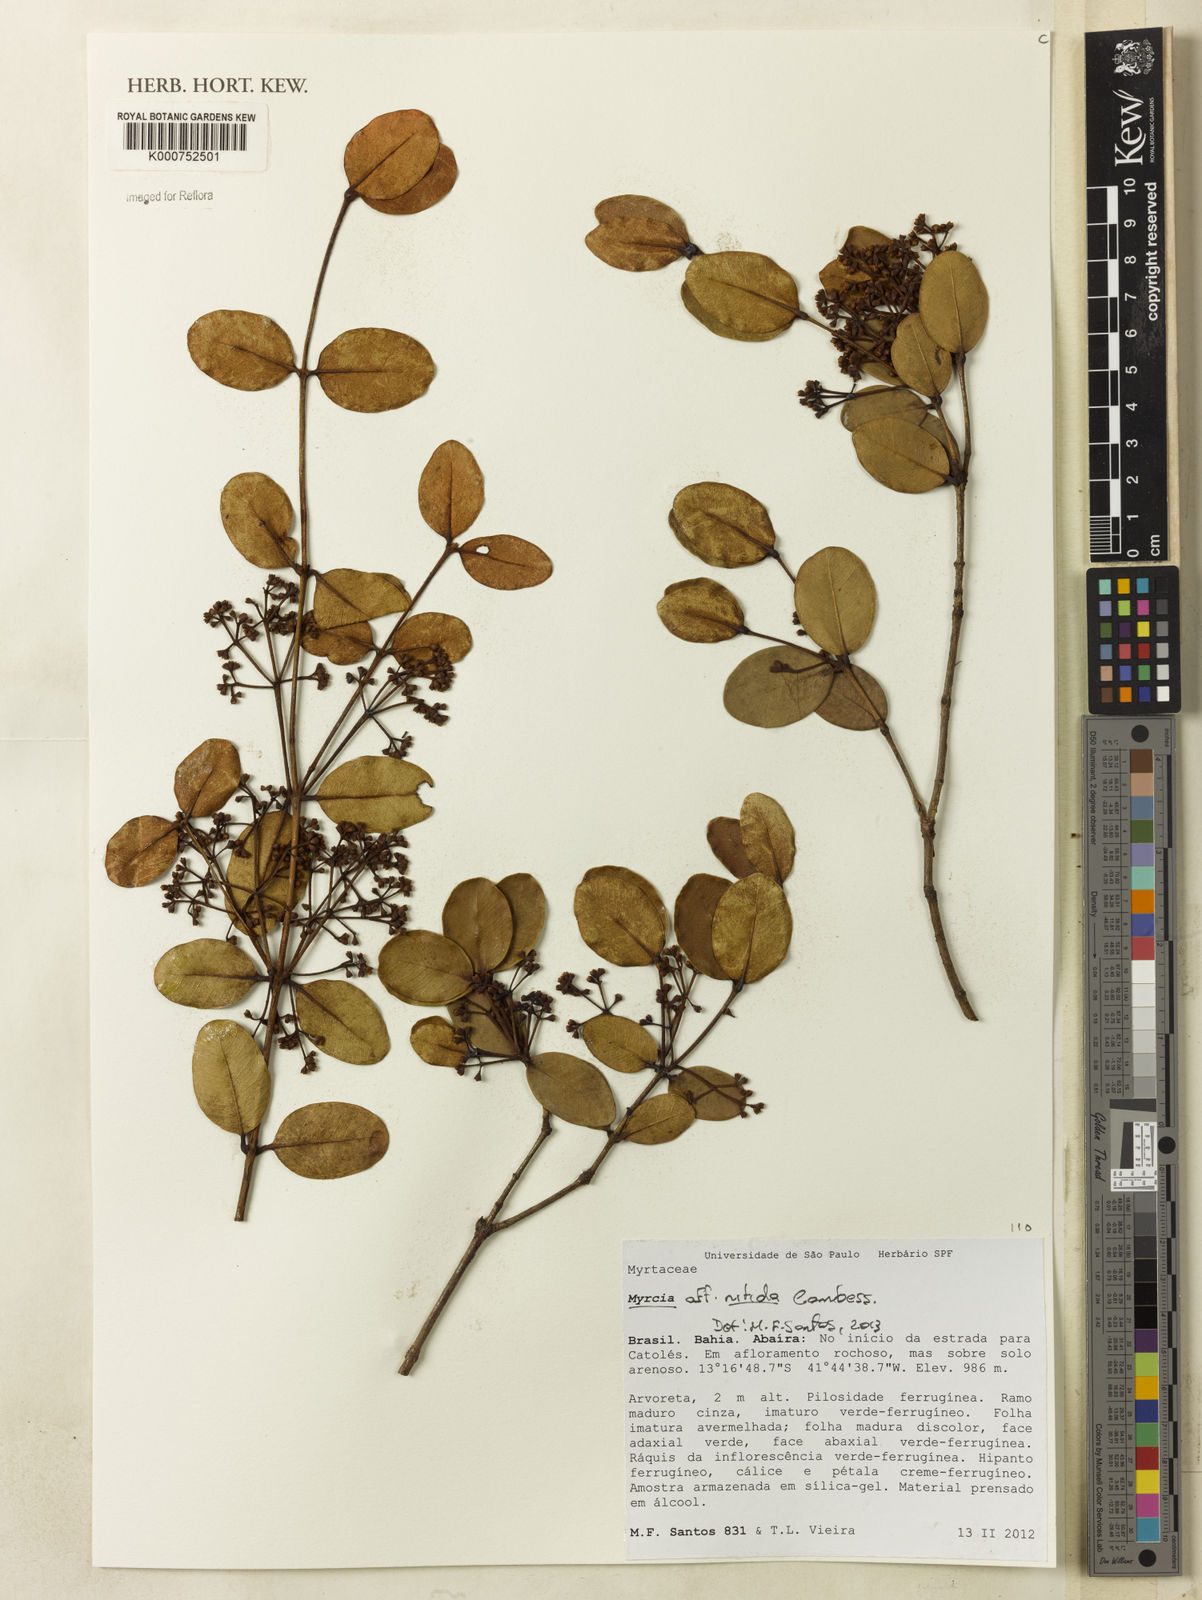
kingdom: Plantae
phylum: Tracheophyta
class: Magnoliopsida
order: Myrtales
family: Myrtaceae
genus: Myrcia
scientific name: Myrcia nitida
